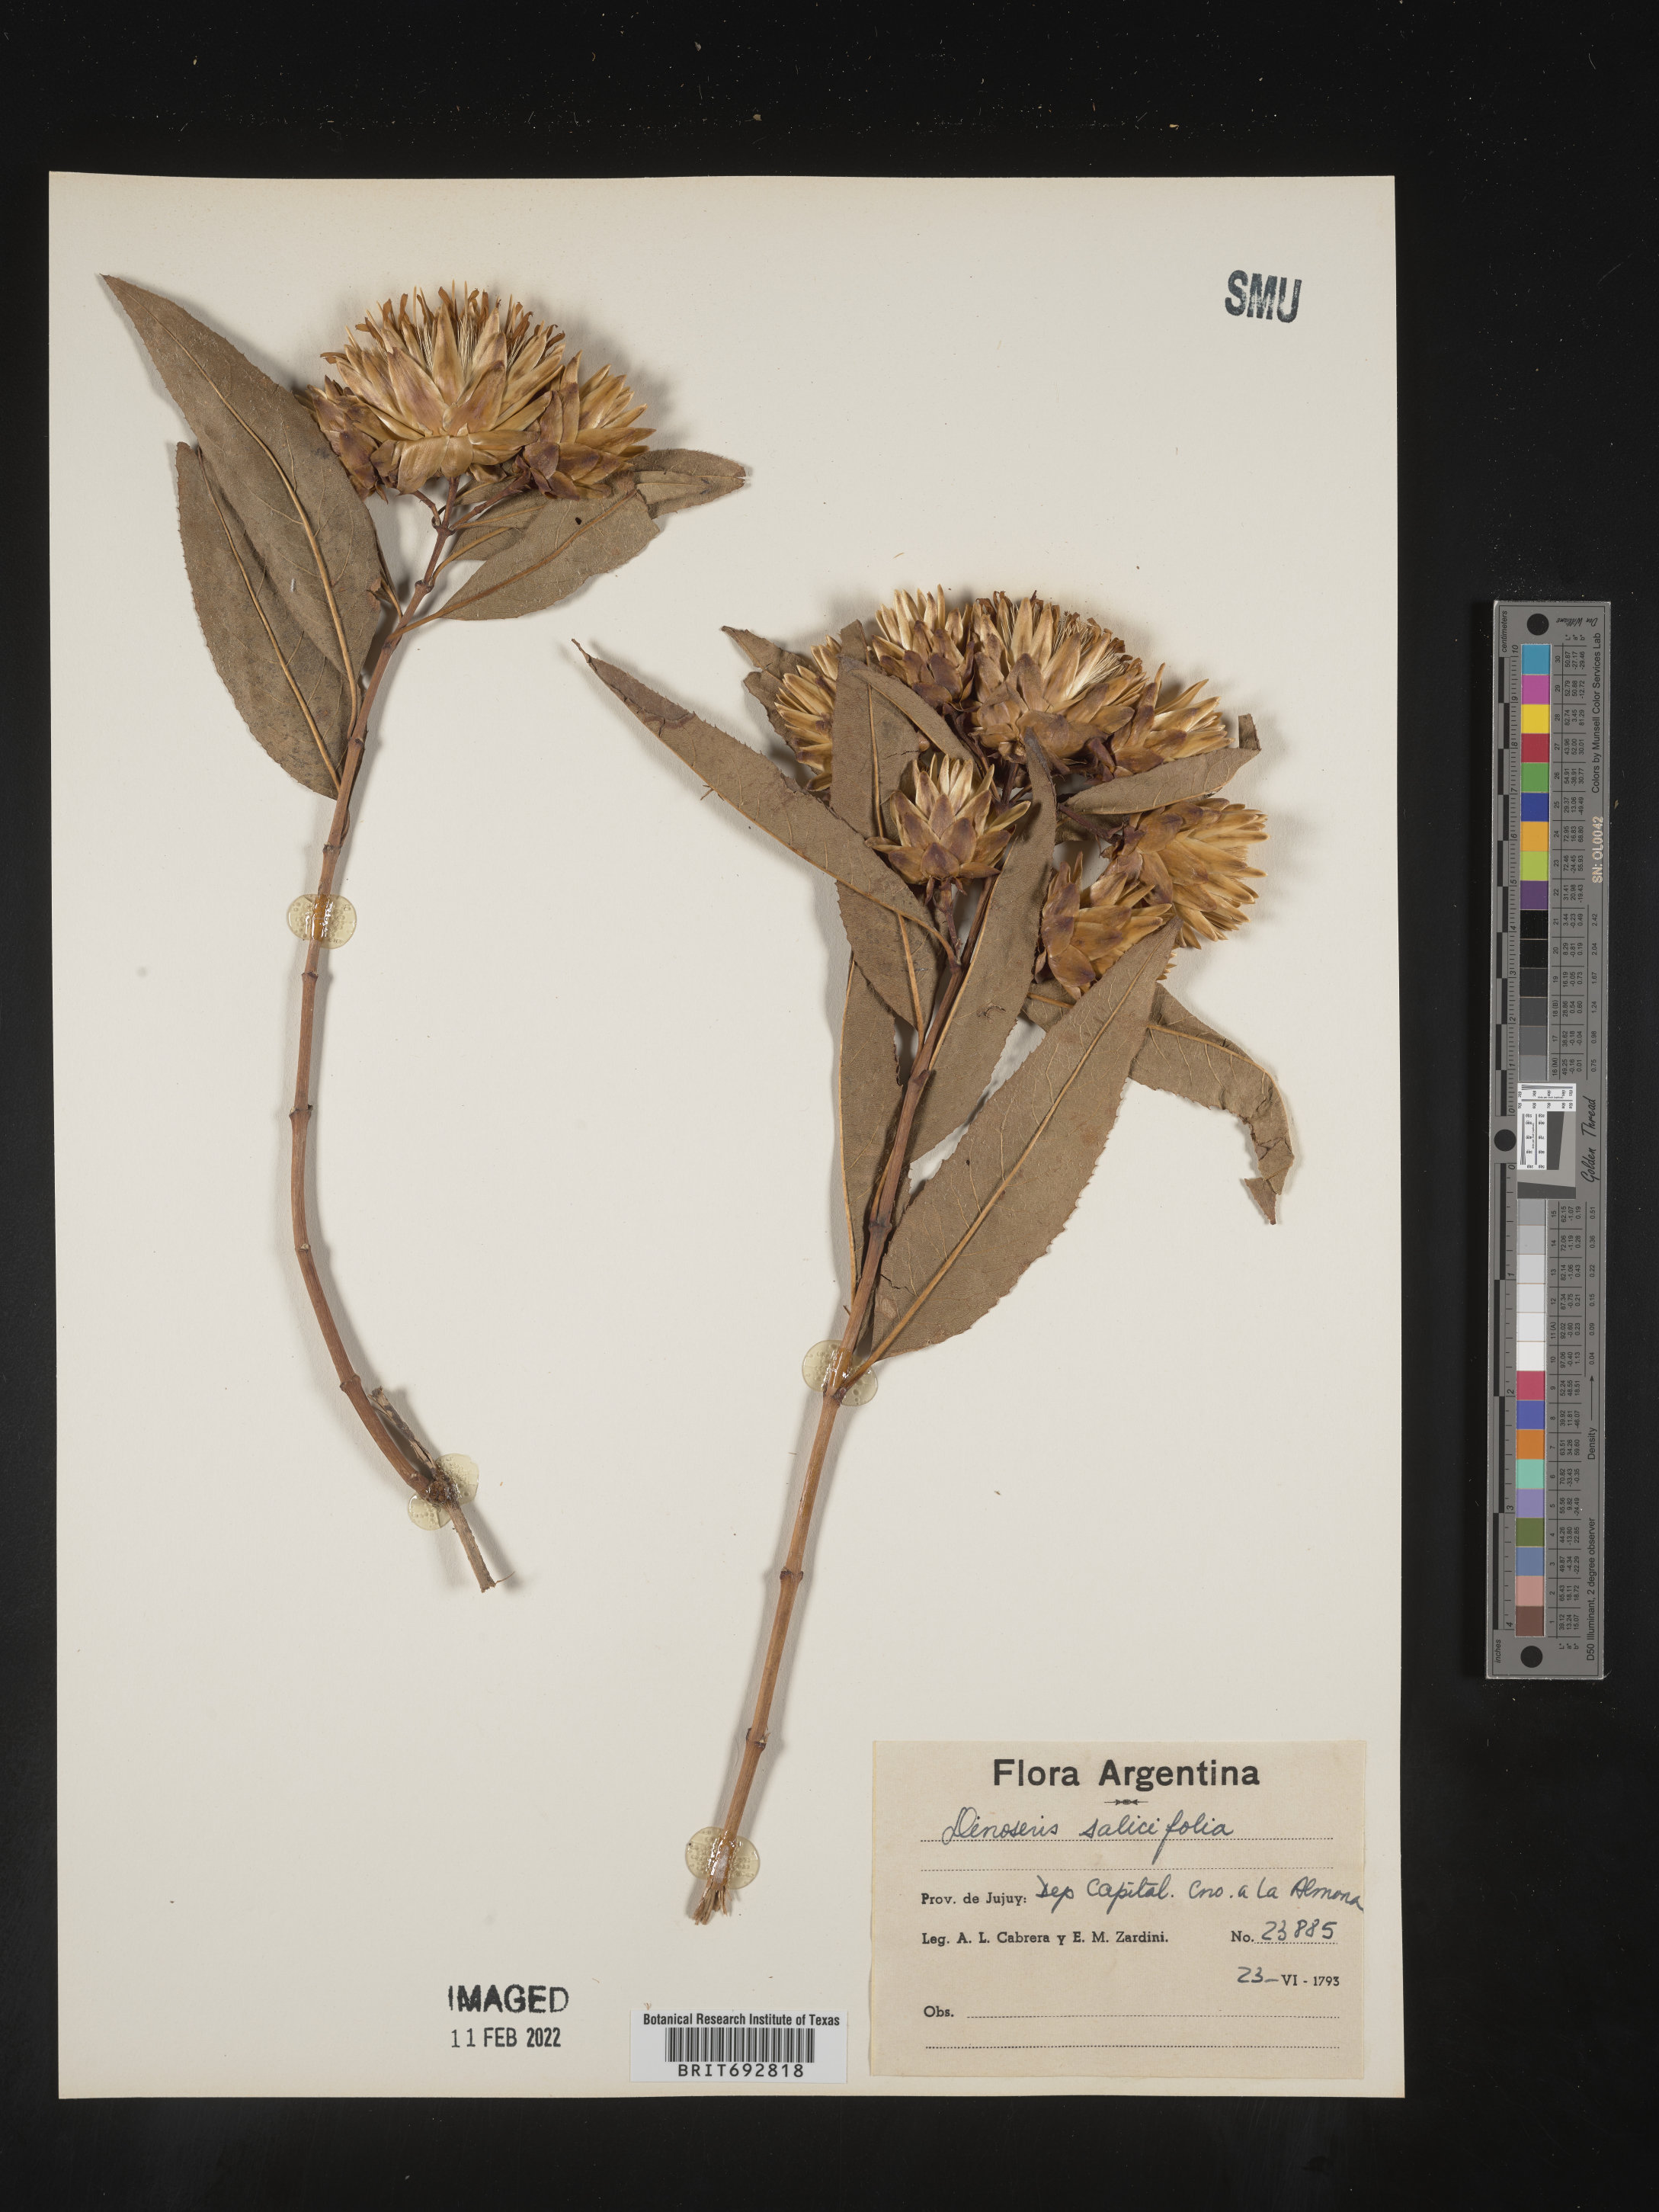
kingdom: Plantae
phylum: Tracheophyta
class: Magnoliopsida
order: Asterales
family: Asteraceae
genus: Hyaloseris
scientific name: Hyaloseris
